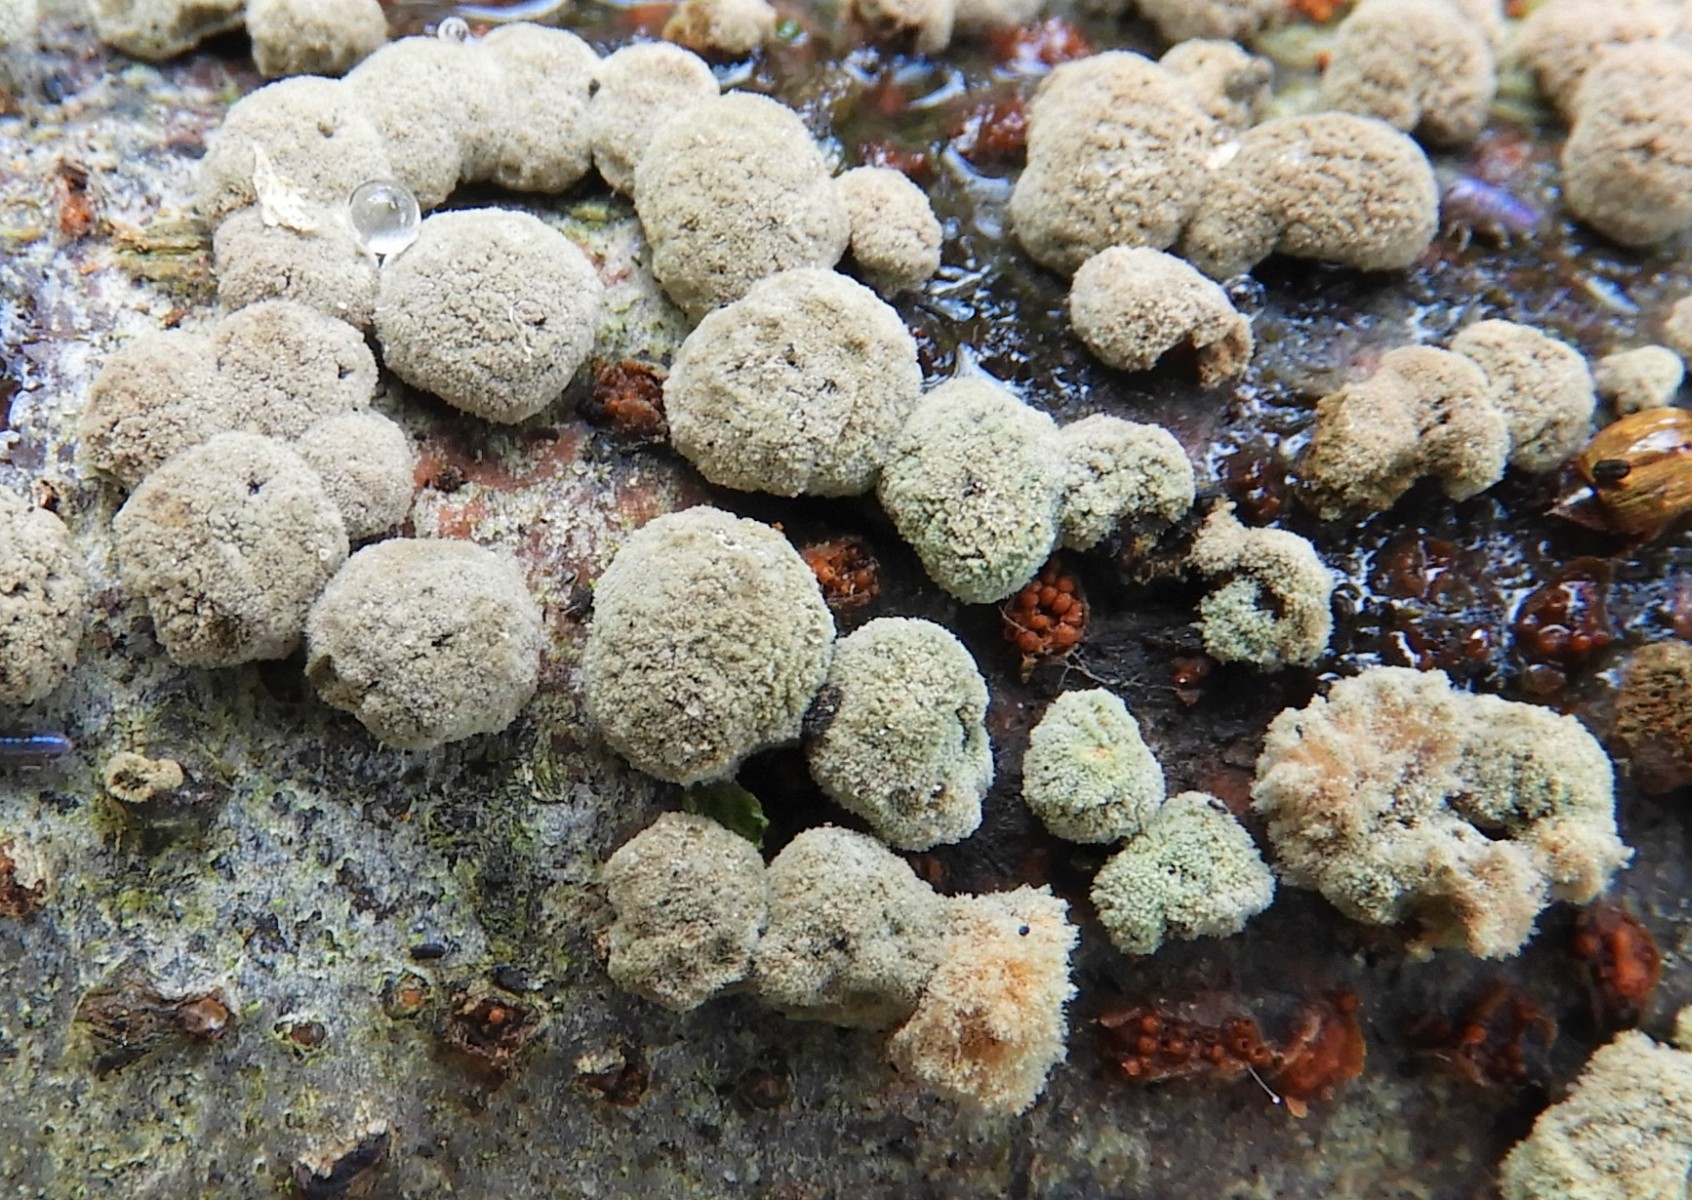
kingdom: Fungi
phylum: Ascomycota
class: Sordariomycetes
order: Xylariales
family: Hypoxylaceae
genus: Hypoxylon
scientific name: Hypoxylon fragiforme
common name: kuljordbær
